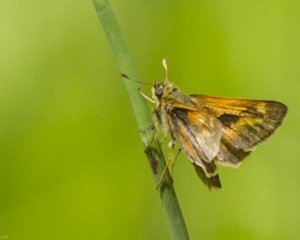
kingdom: Animalia
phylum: Arthropoda
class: Insecta
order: Lepidoptera
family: Hesperiidae
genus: Polites
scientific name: Polites
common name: Long Dash Skipper
